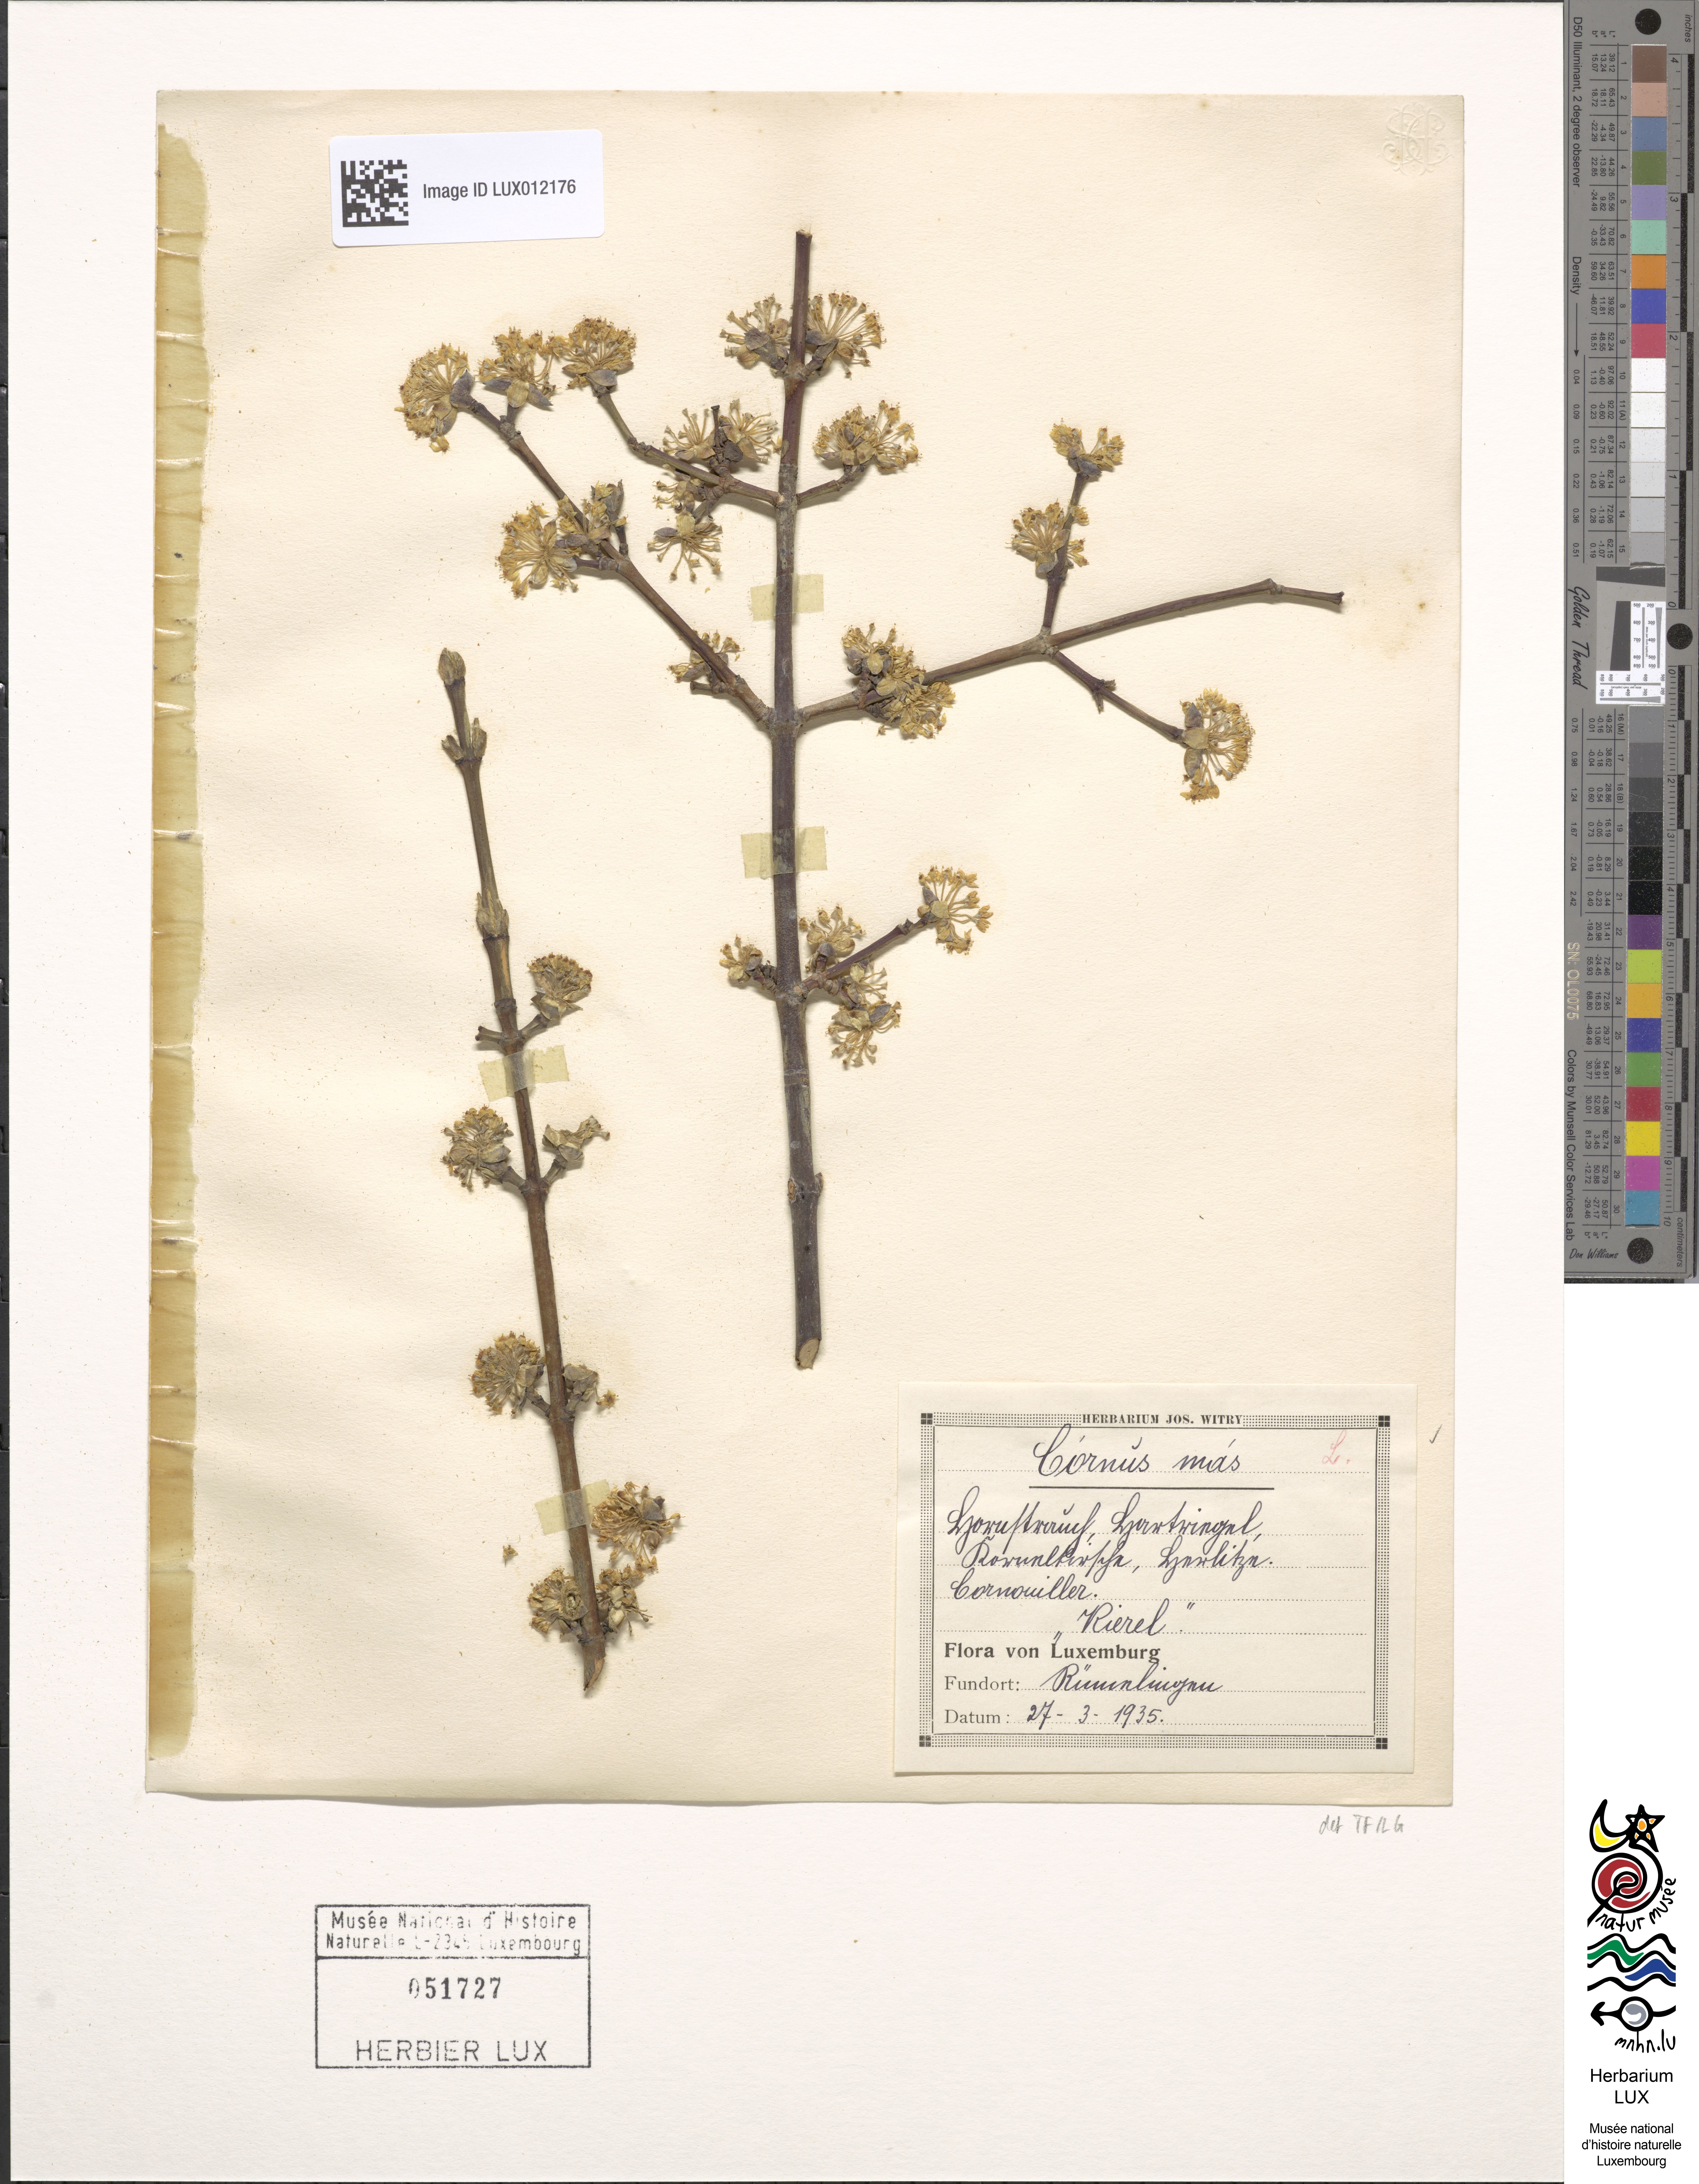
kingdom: Plantae
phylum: Tracheophyta
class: Magnoliopsida
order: Cornales
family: Cornaceae
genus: Cornus
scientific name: Cornus mas
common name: Cornelian-cherry
